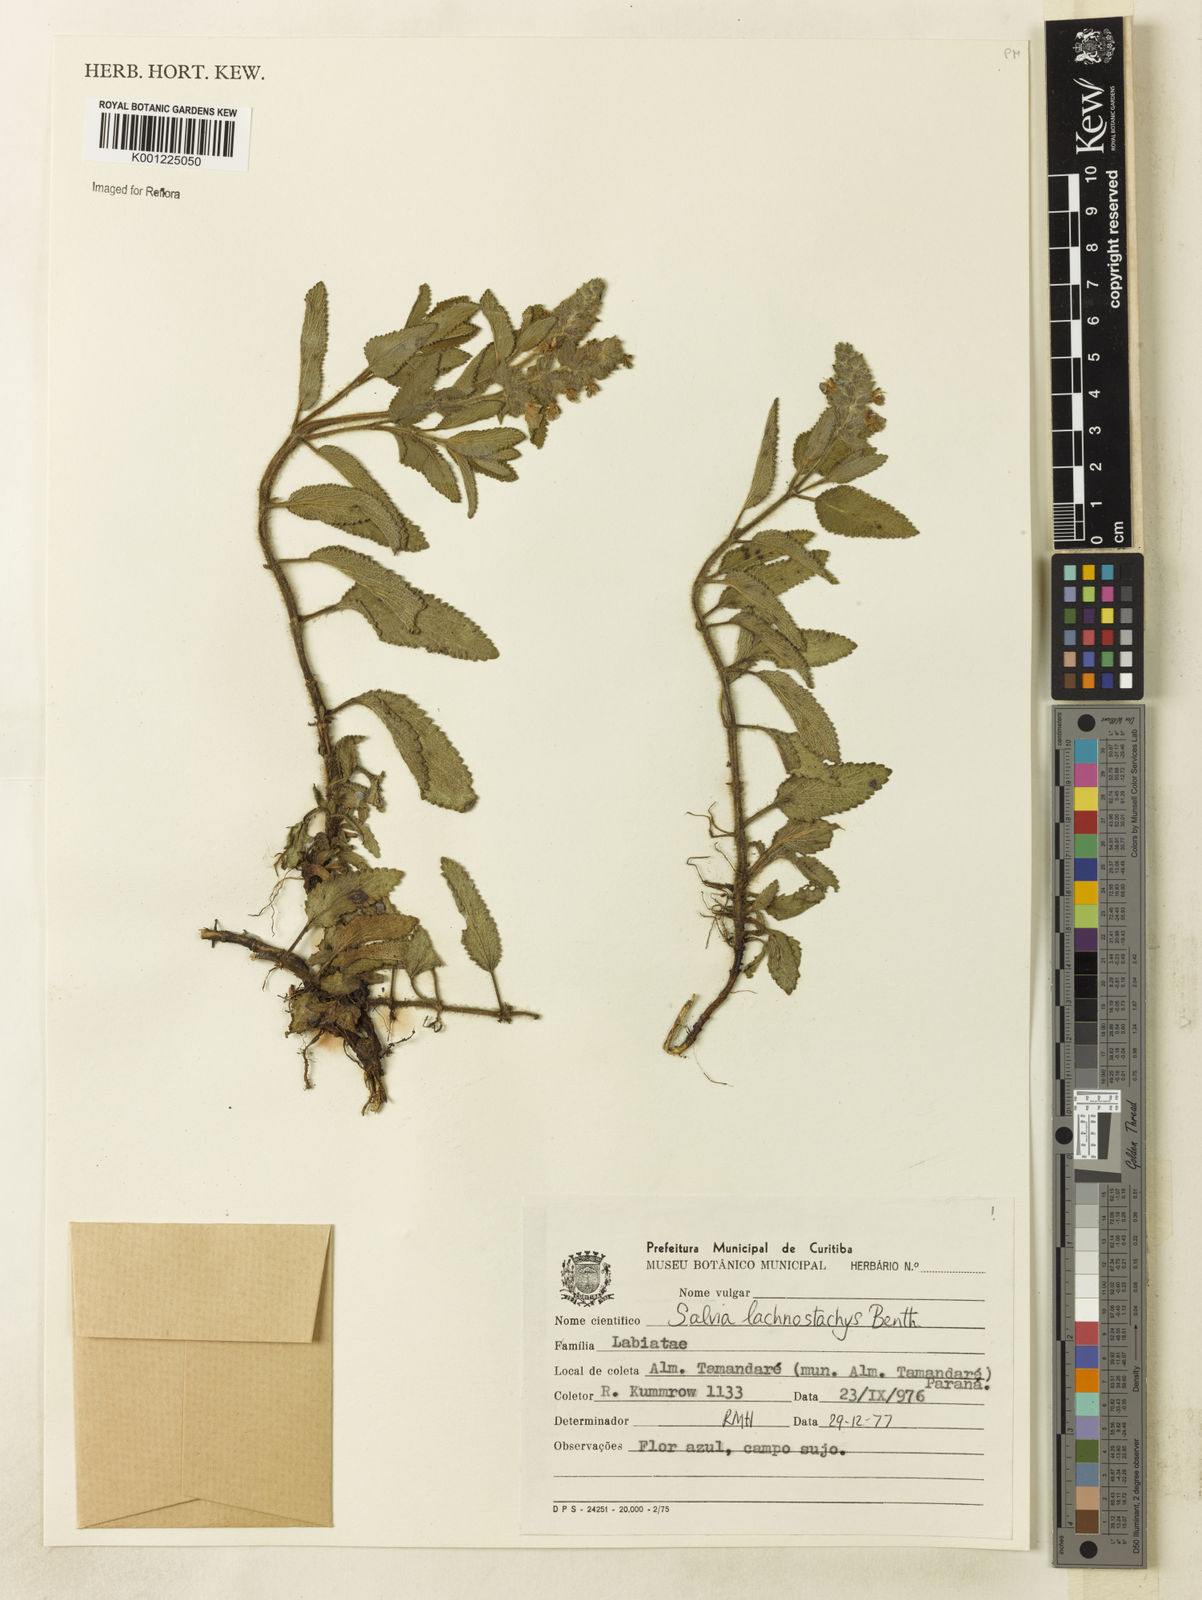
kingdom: Plantae
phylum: Tracheophyta
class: Magnoliopsida
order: Lamiales
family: Lamiaceae
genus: Salvia
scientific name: Salvia lachnostachys
